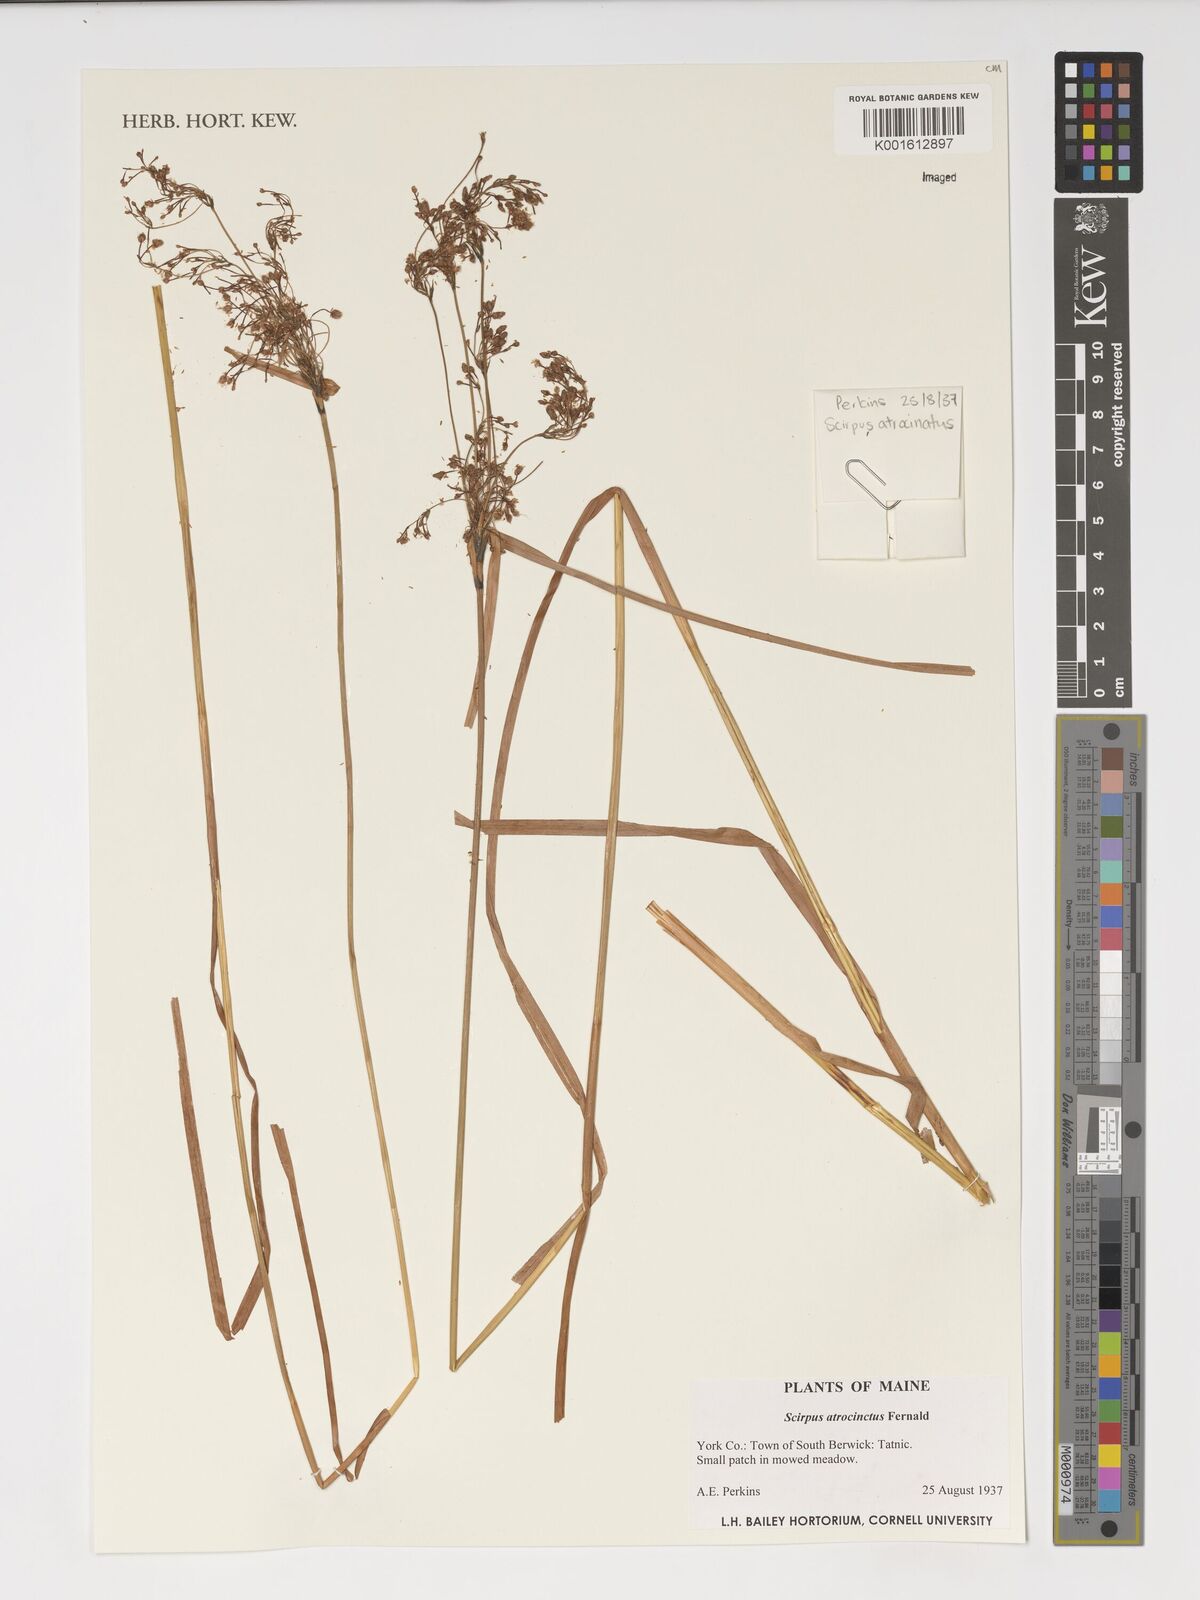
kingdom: Plantae
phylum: Tracheophyta
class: Liliopsida
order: Poales
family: Cyperaceae
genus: Scirpus
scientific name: Scirpus atrocinctus
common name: Black-girdled bulrush
